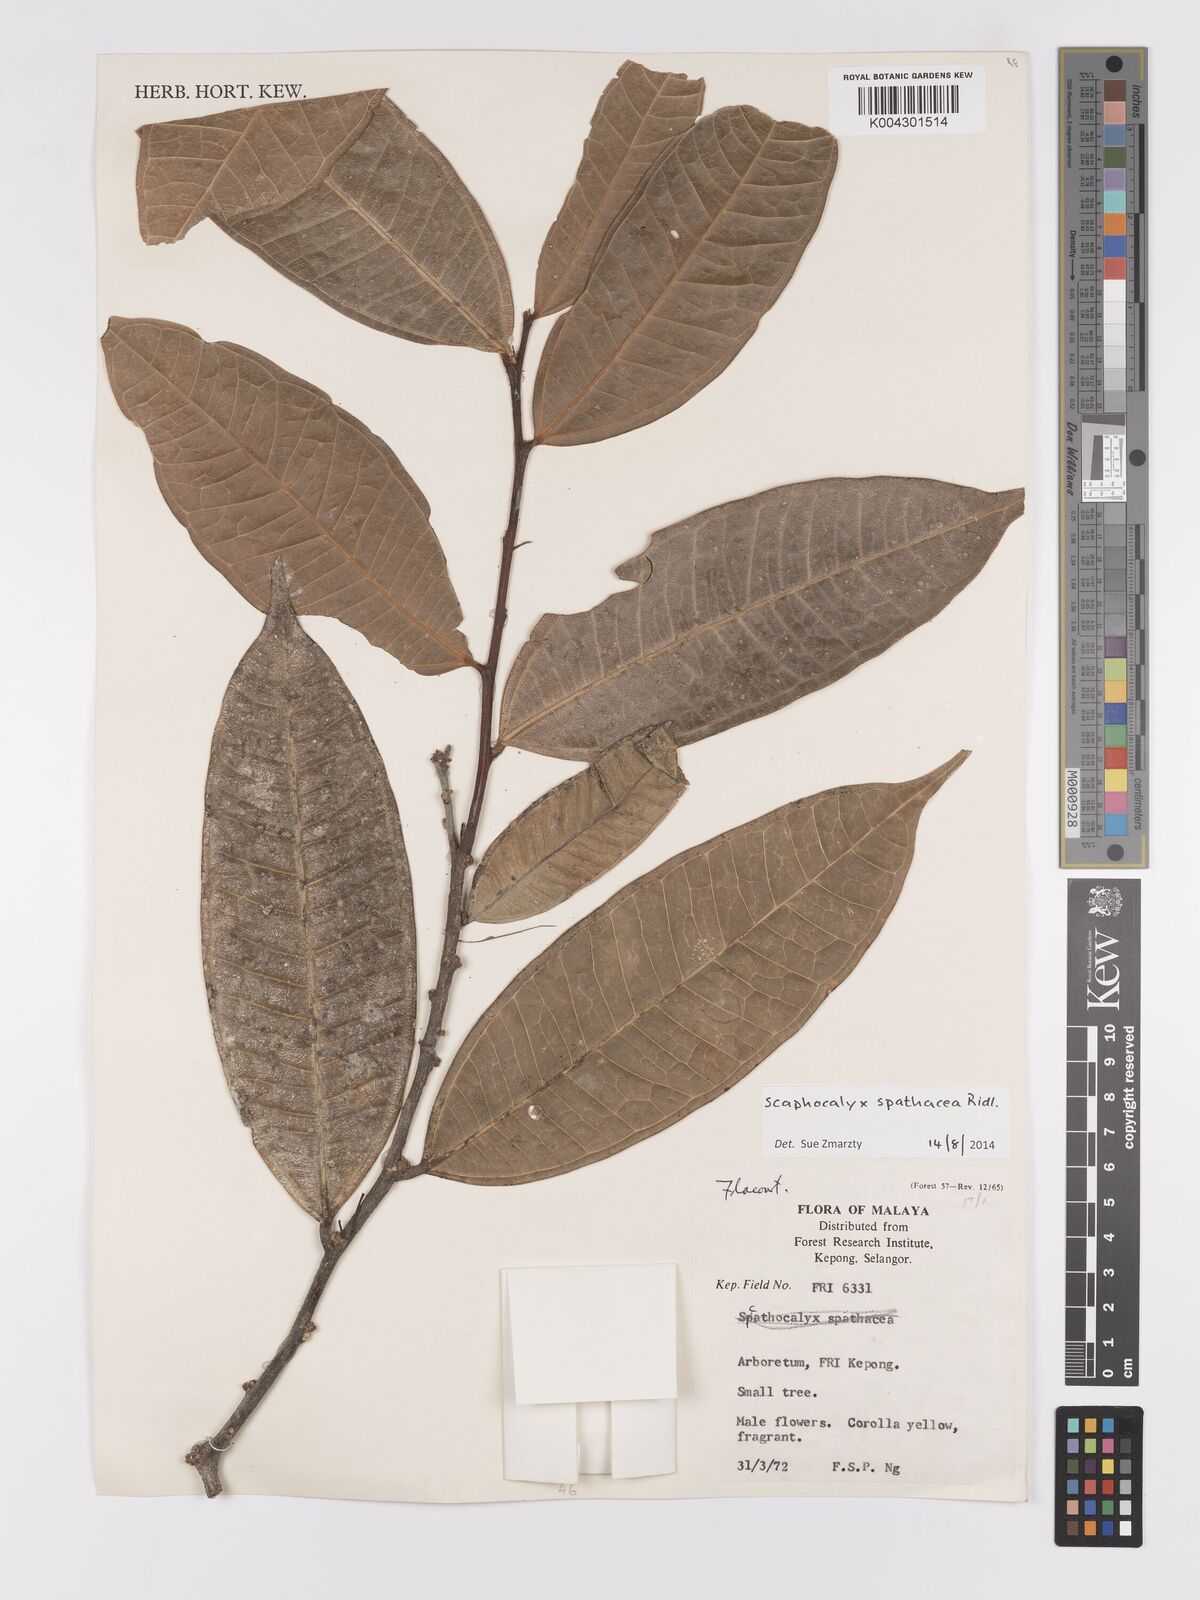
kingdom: Plantae
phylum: Tracheophyta
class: Magnoliopsida
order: Malpighiales
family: Achariaceae
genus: Scaphocalyx
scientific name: Scaphocalyx
